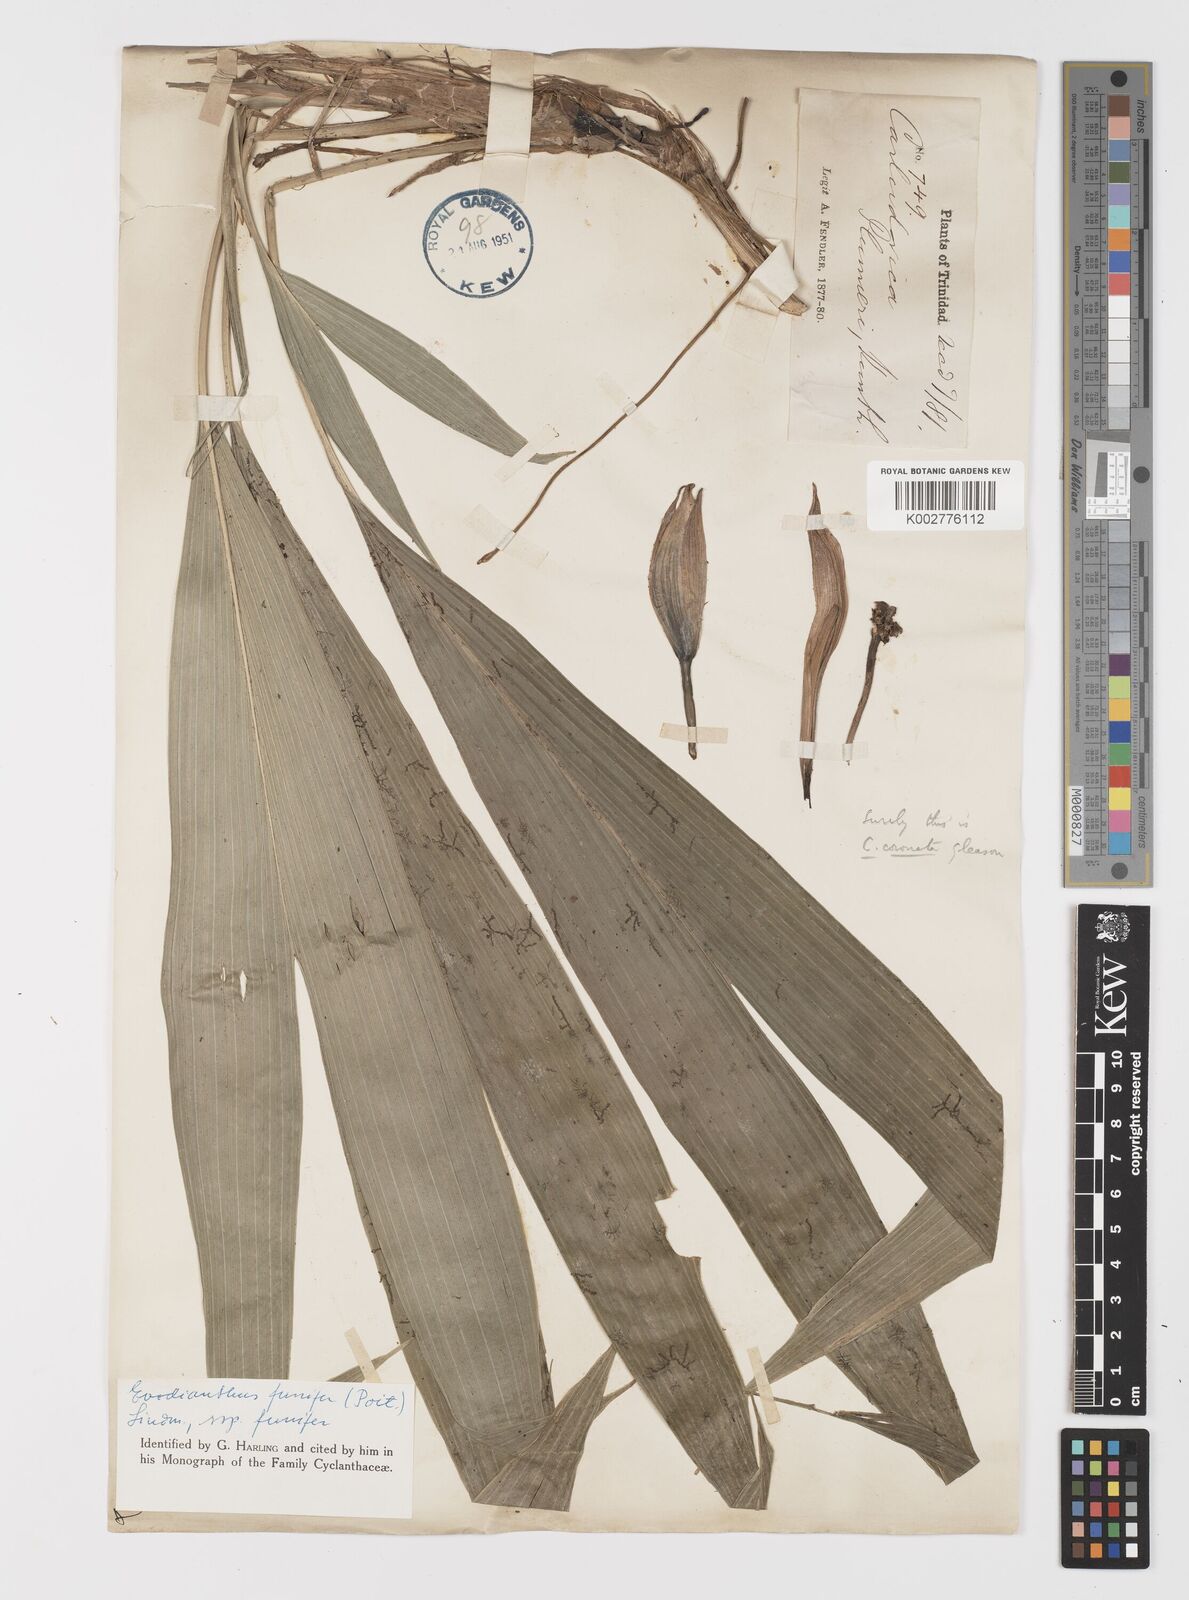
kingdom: Plantae
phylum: Tracheophyta
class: Liliopsida
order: Pandanales
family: Cyclanthaceae
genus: Evodianthus
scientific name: Evodianthus funifer
